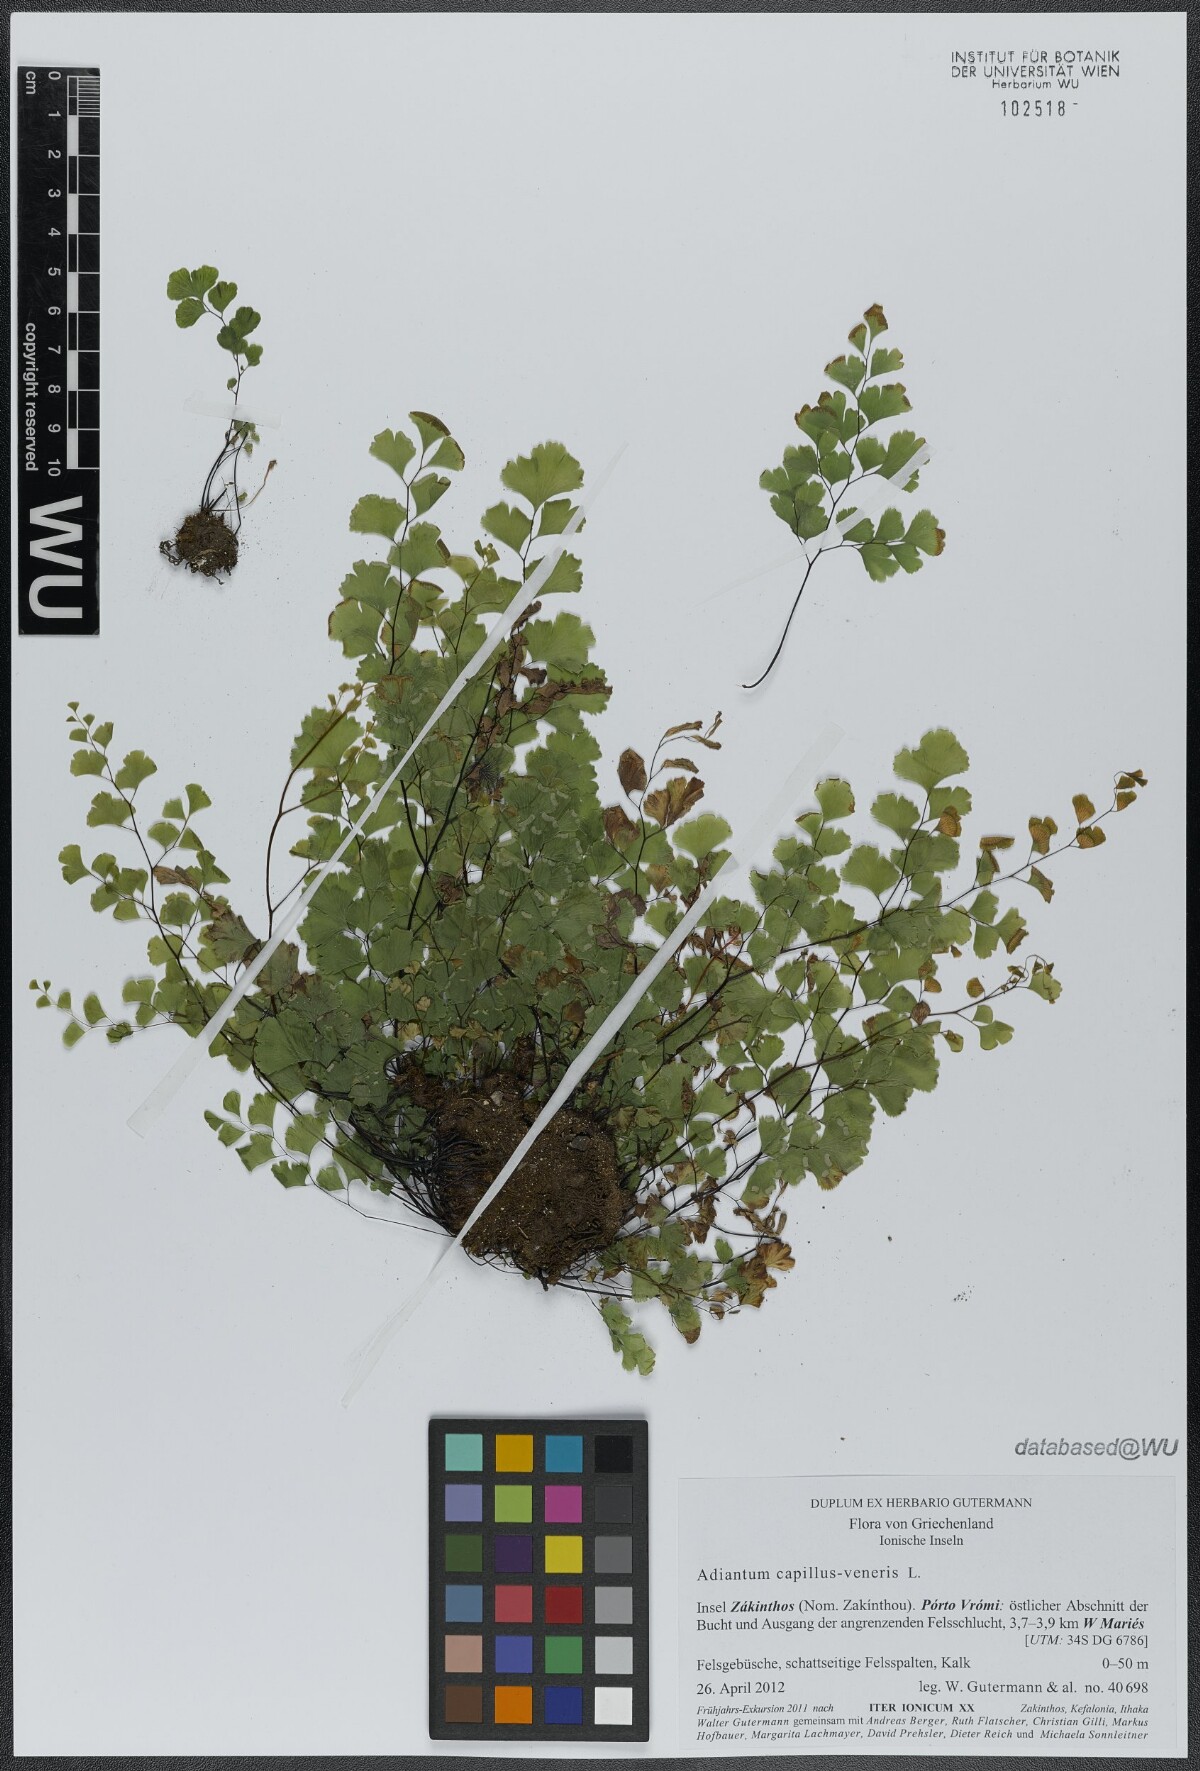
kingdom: Plantae
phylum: Tracheophyta
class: Polypodiopsida
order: Polypodiales
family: Pteridaceae
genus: Adiantum
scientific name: Adiantum capillus-veneris
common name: Maidenhair fern
